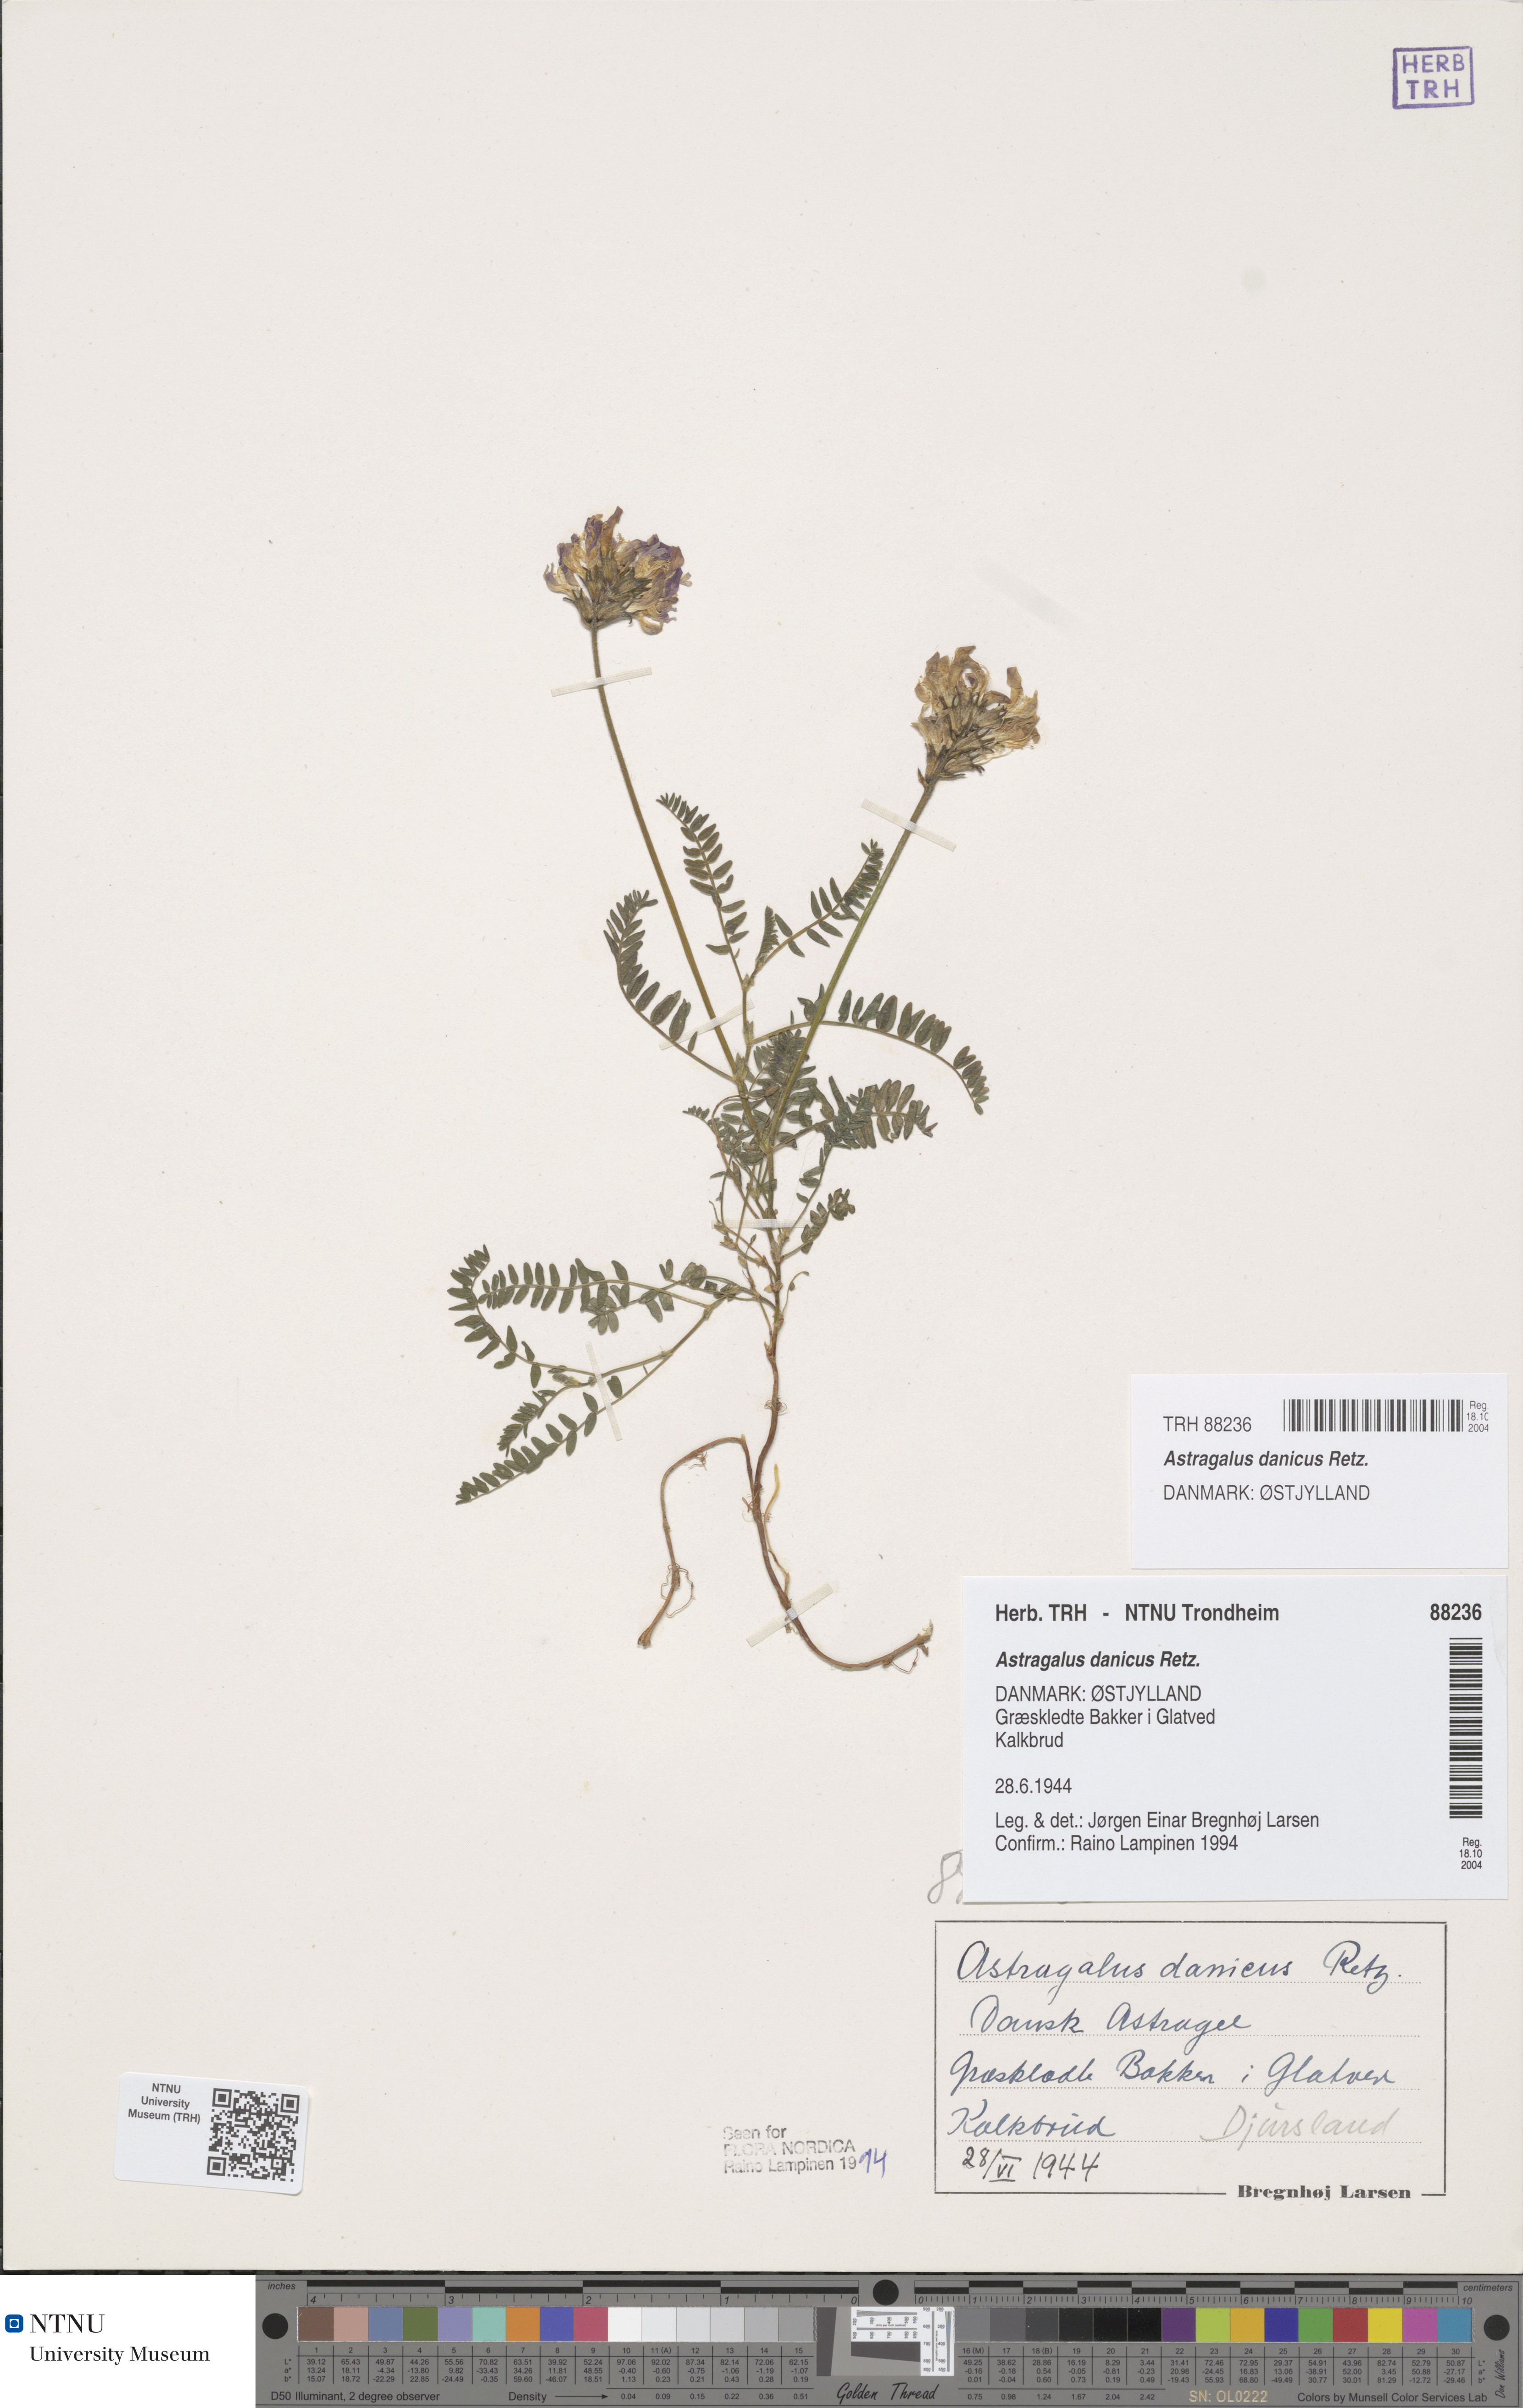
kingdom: Plantae
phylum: Tracheophyta
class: Magnoliopsida
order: Fabales
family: Fabaceae
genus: Astragalus
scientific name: Astragalus danicus
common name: Purple milk-vetch
